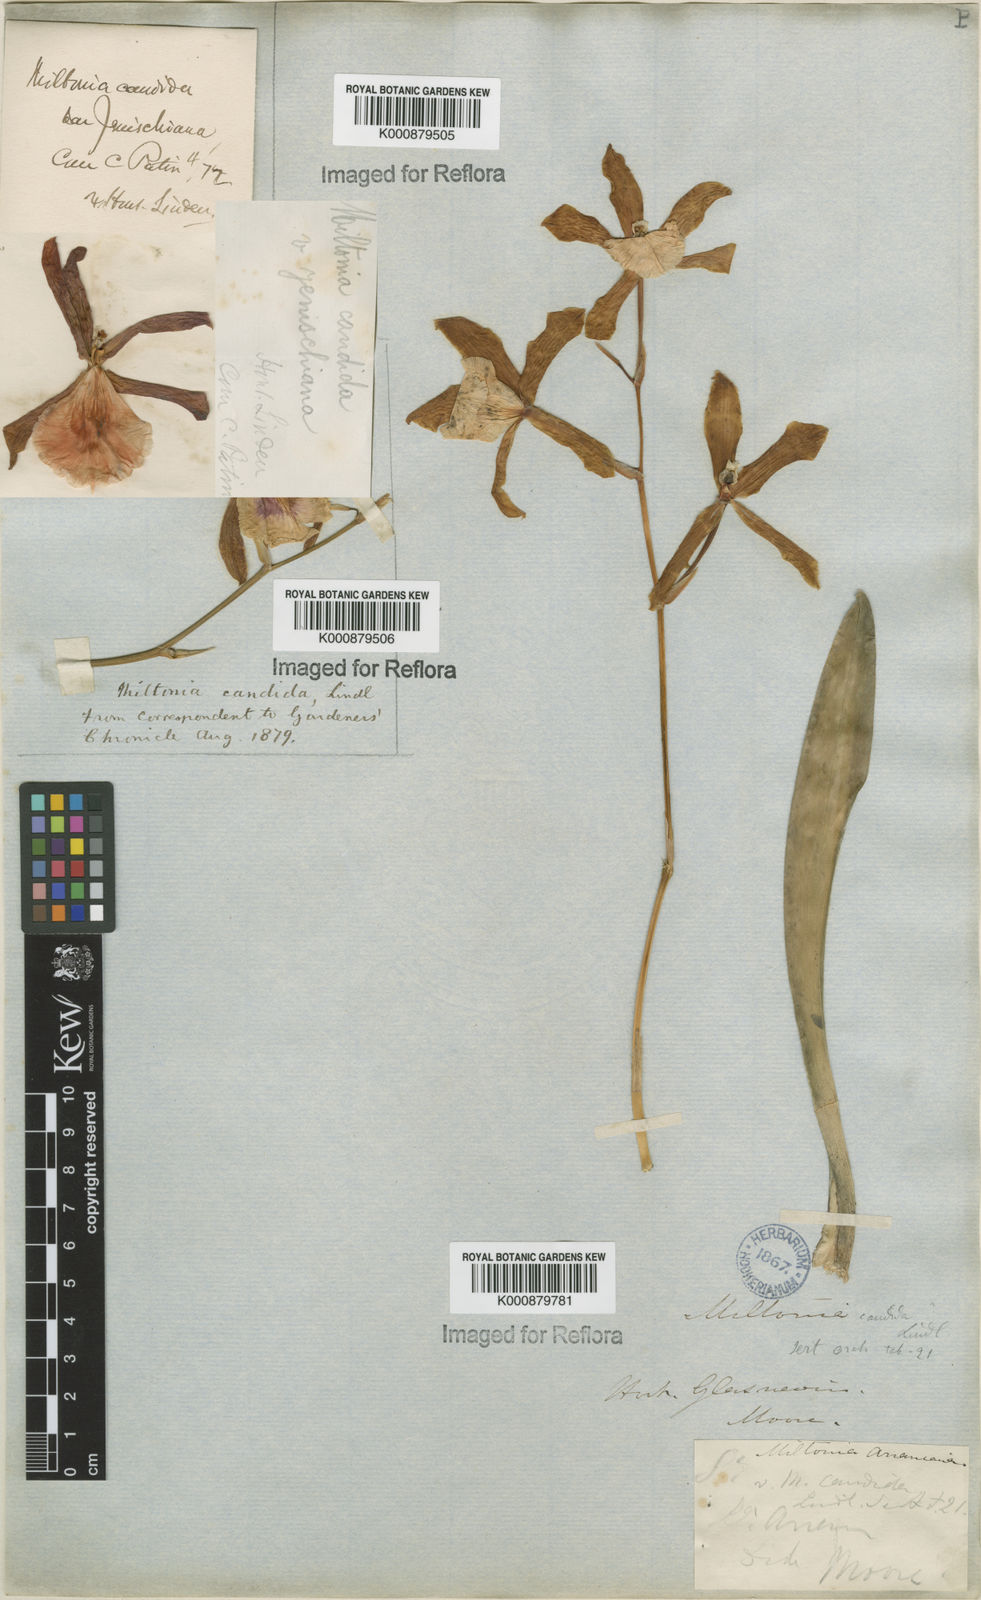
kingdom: Plantae
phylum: Tracheophyta
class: Liliopsida
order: Asparagales
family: Orchidaceae
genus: Miltonia
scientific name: Miltonia candida
